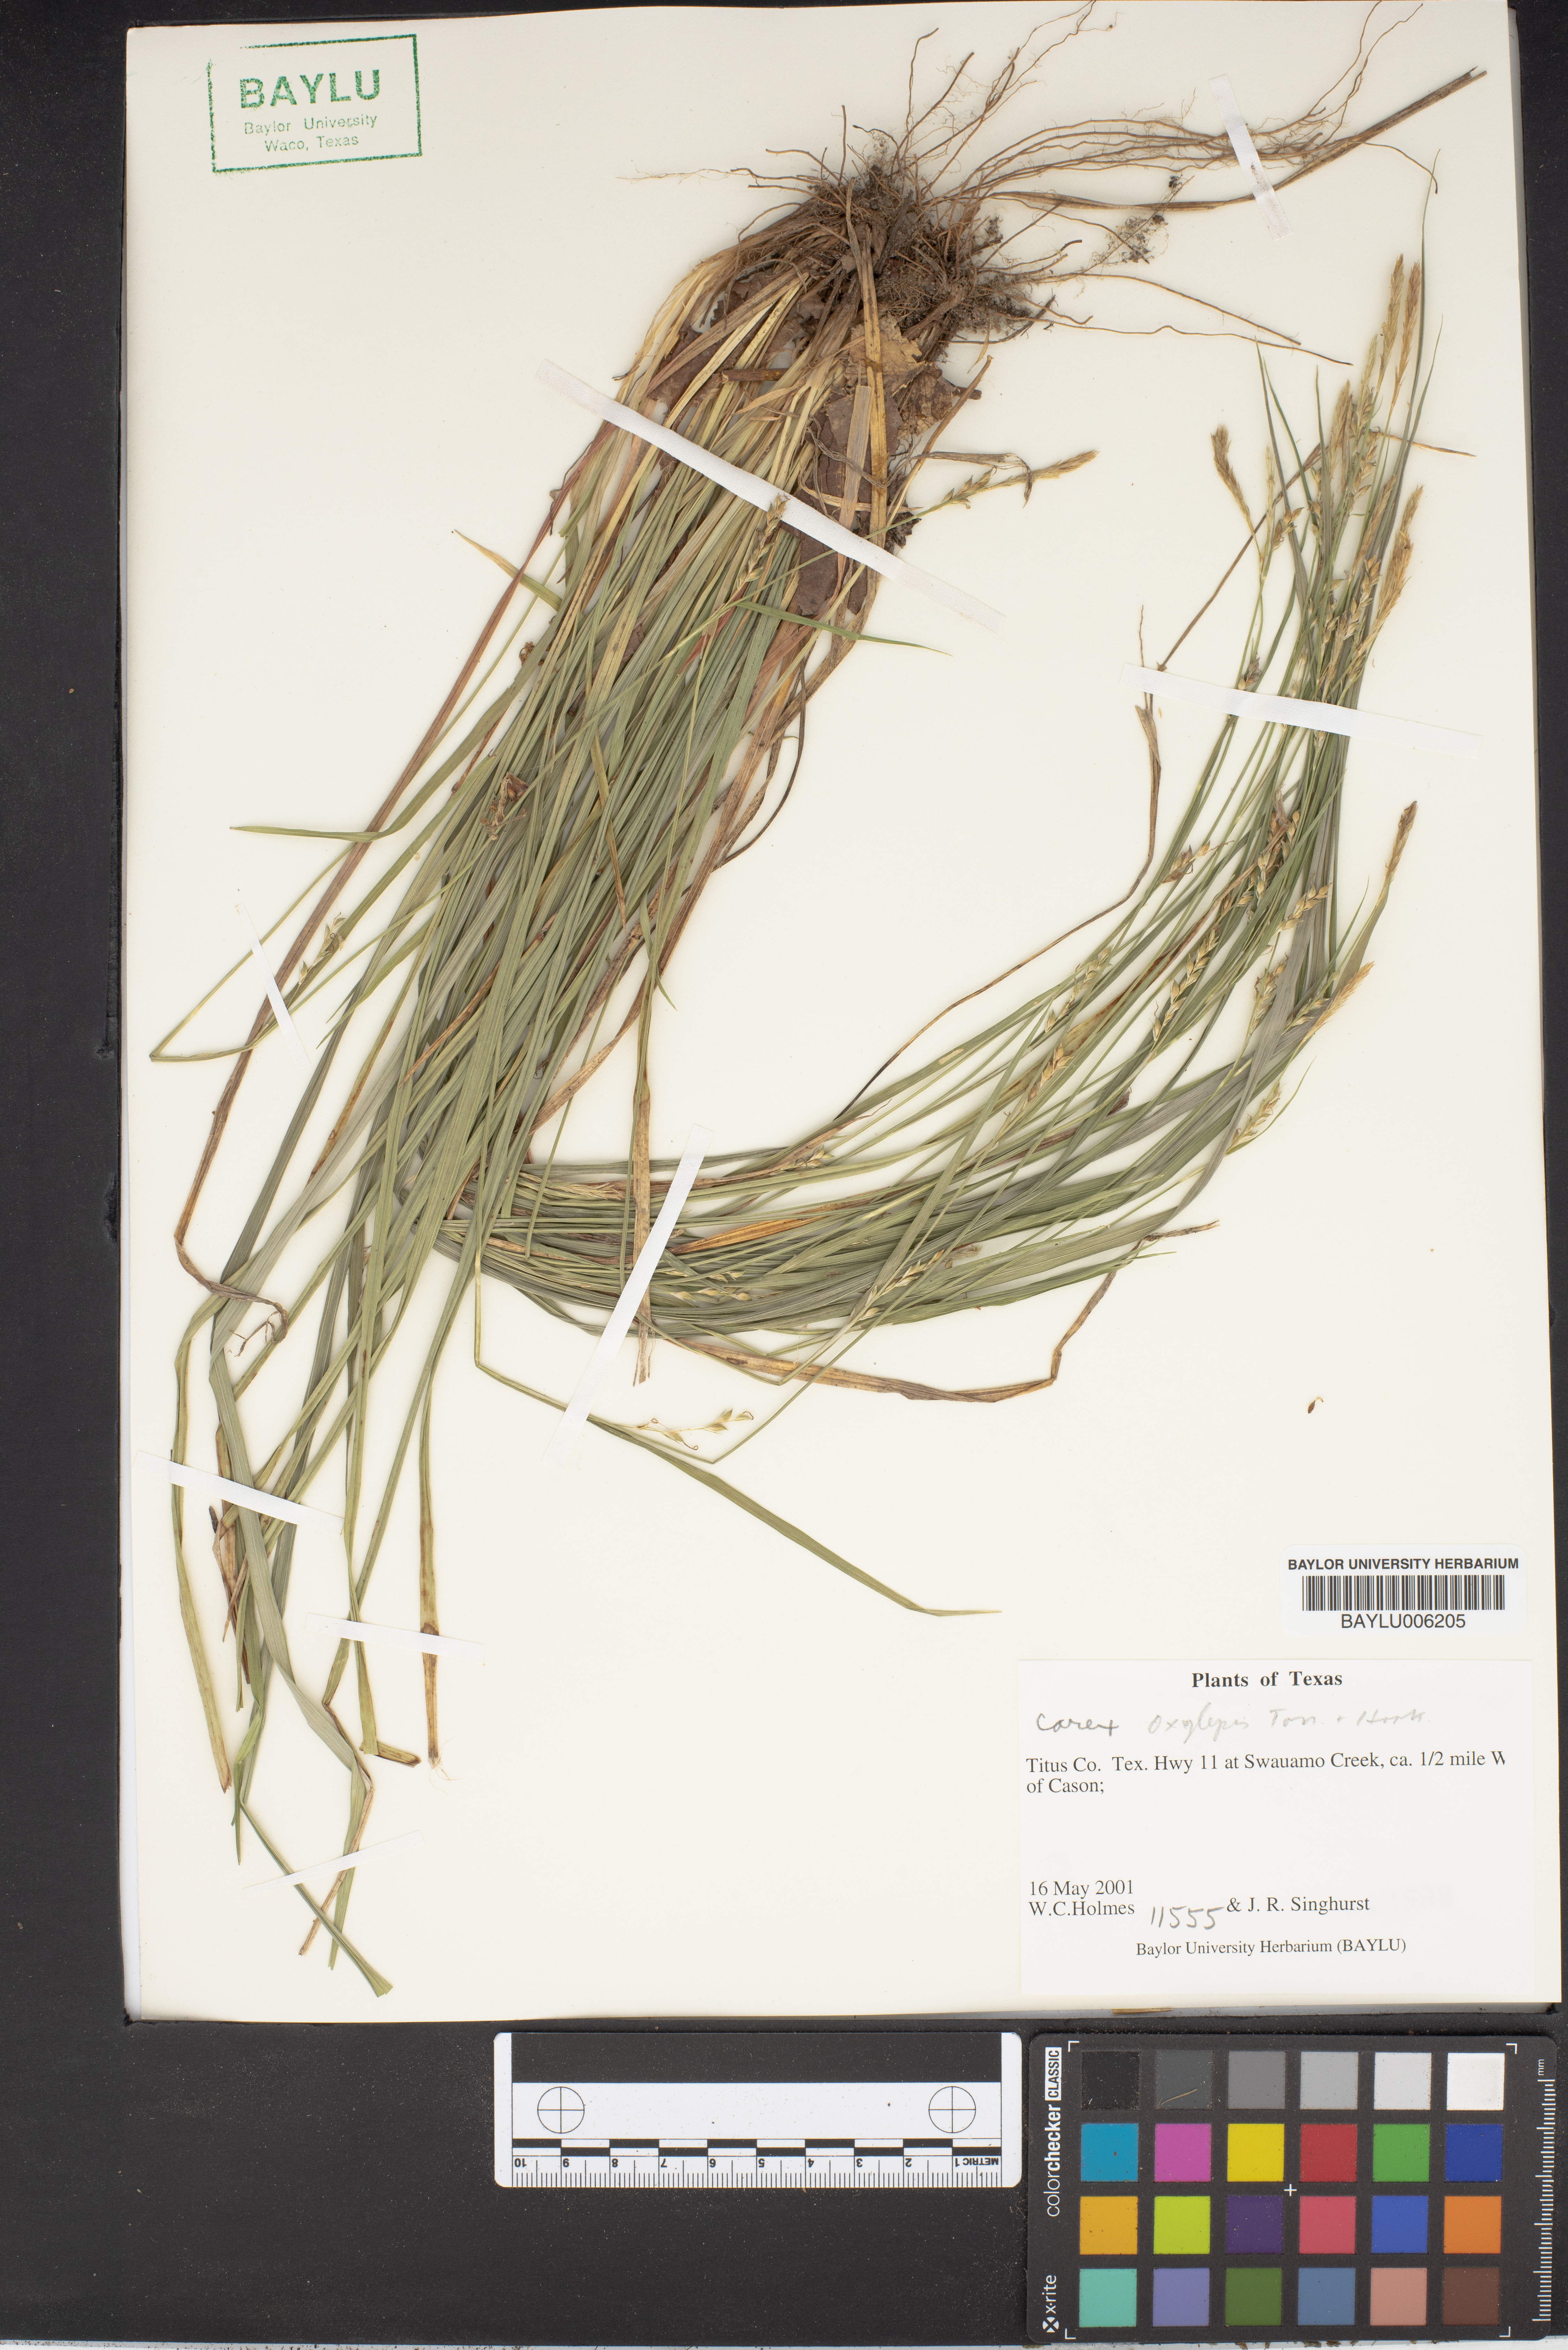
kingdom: Plantae
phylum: Tracheophyta
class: Liliopsida
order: Poales
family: Cyperaceae
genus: Carex
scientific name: Carex oxylepis
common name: Sharpscale sedge
